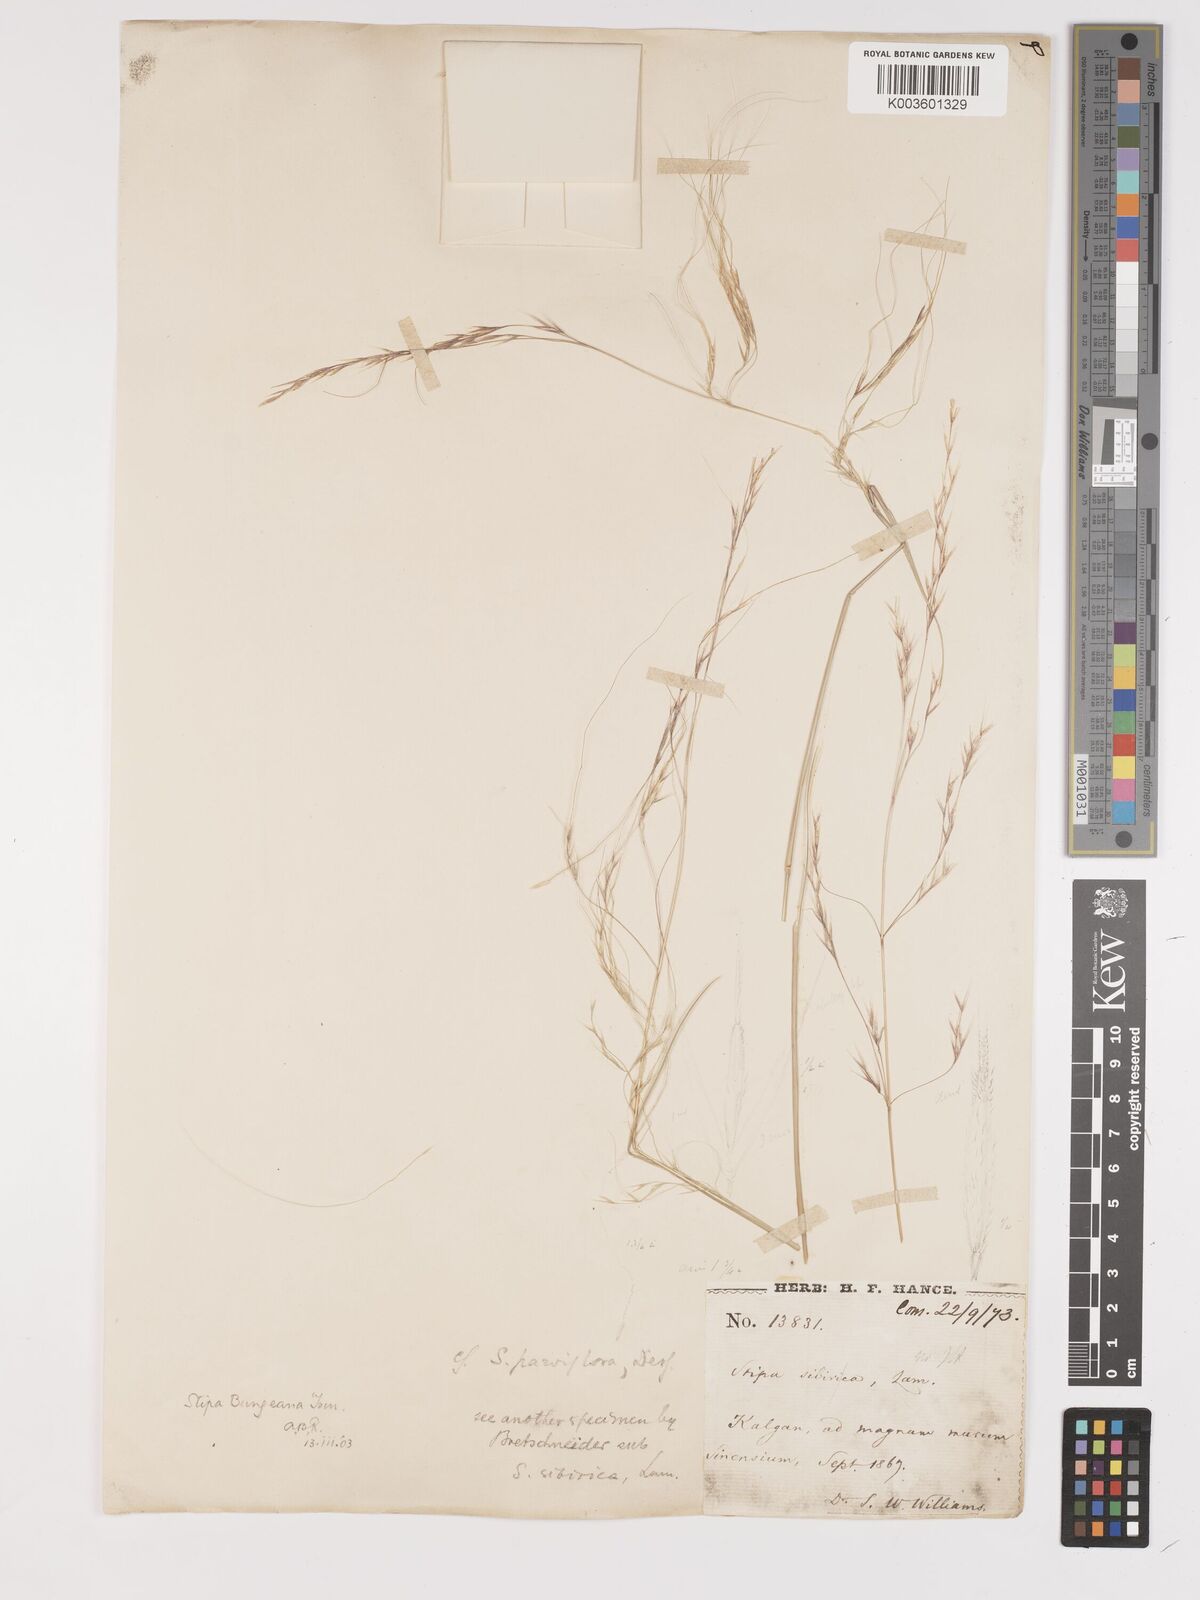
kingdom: Plantae
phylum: Tracheophyta
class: Liliopsida
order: Poales
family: Poaceae
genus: Stipa
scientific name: Stipa bungeana
